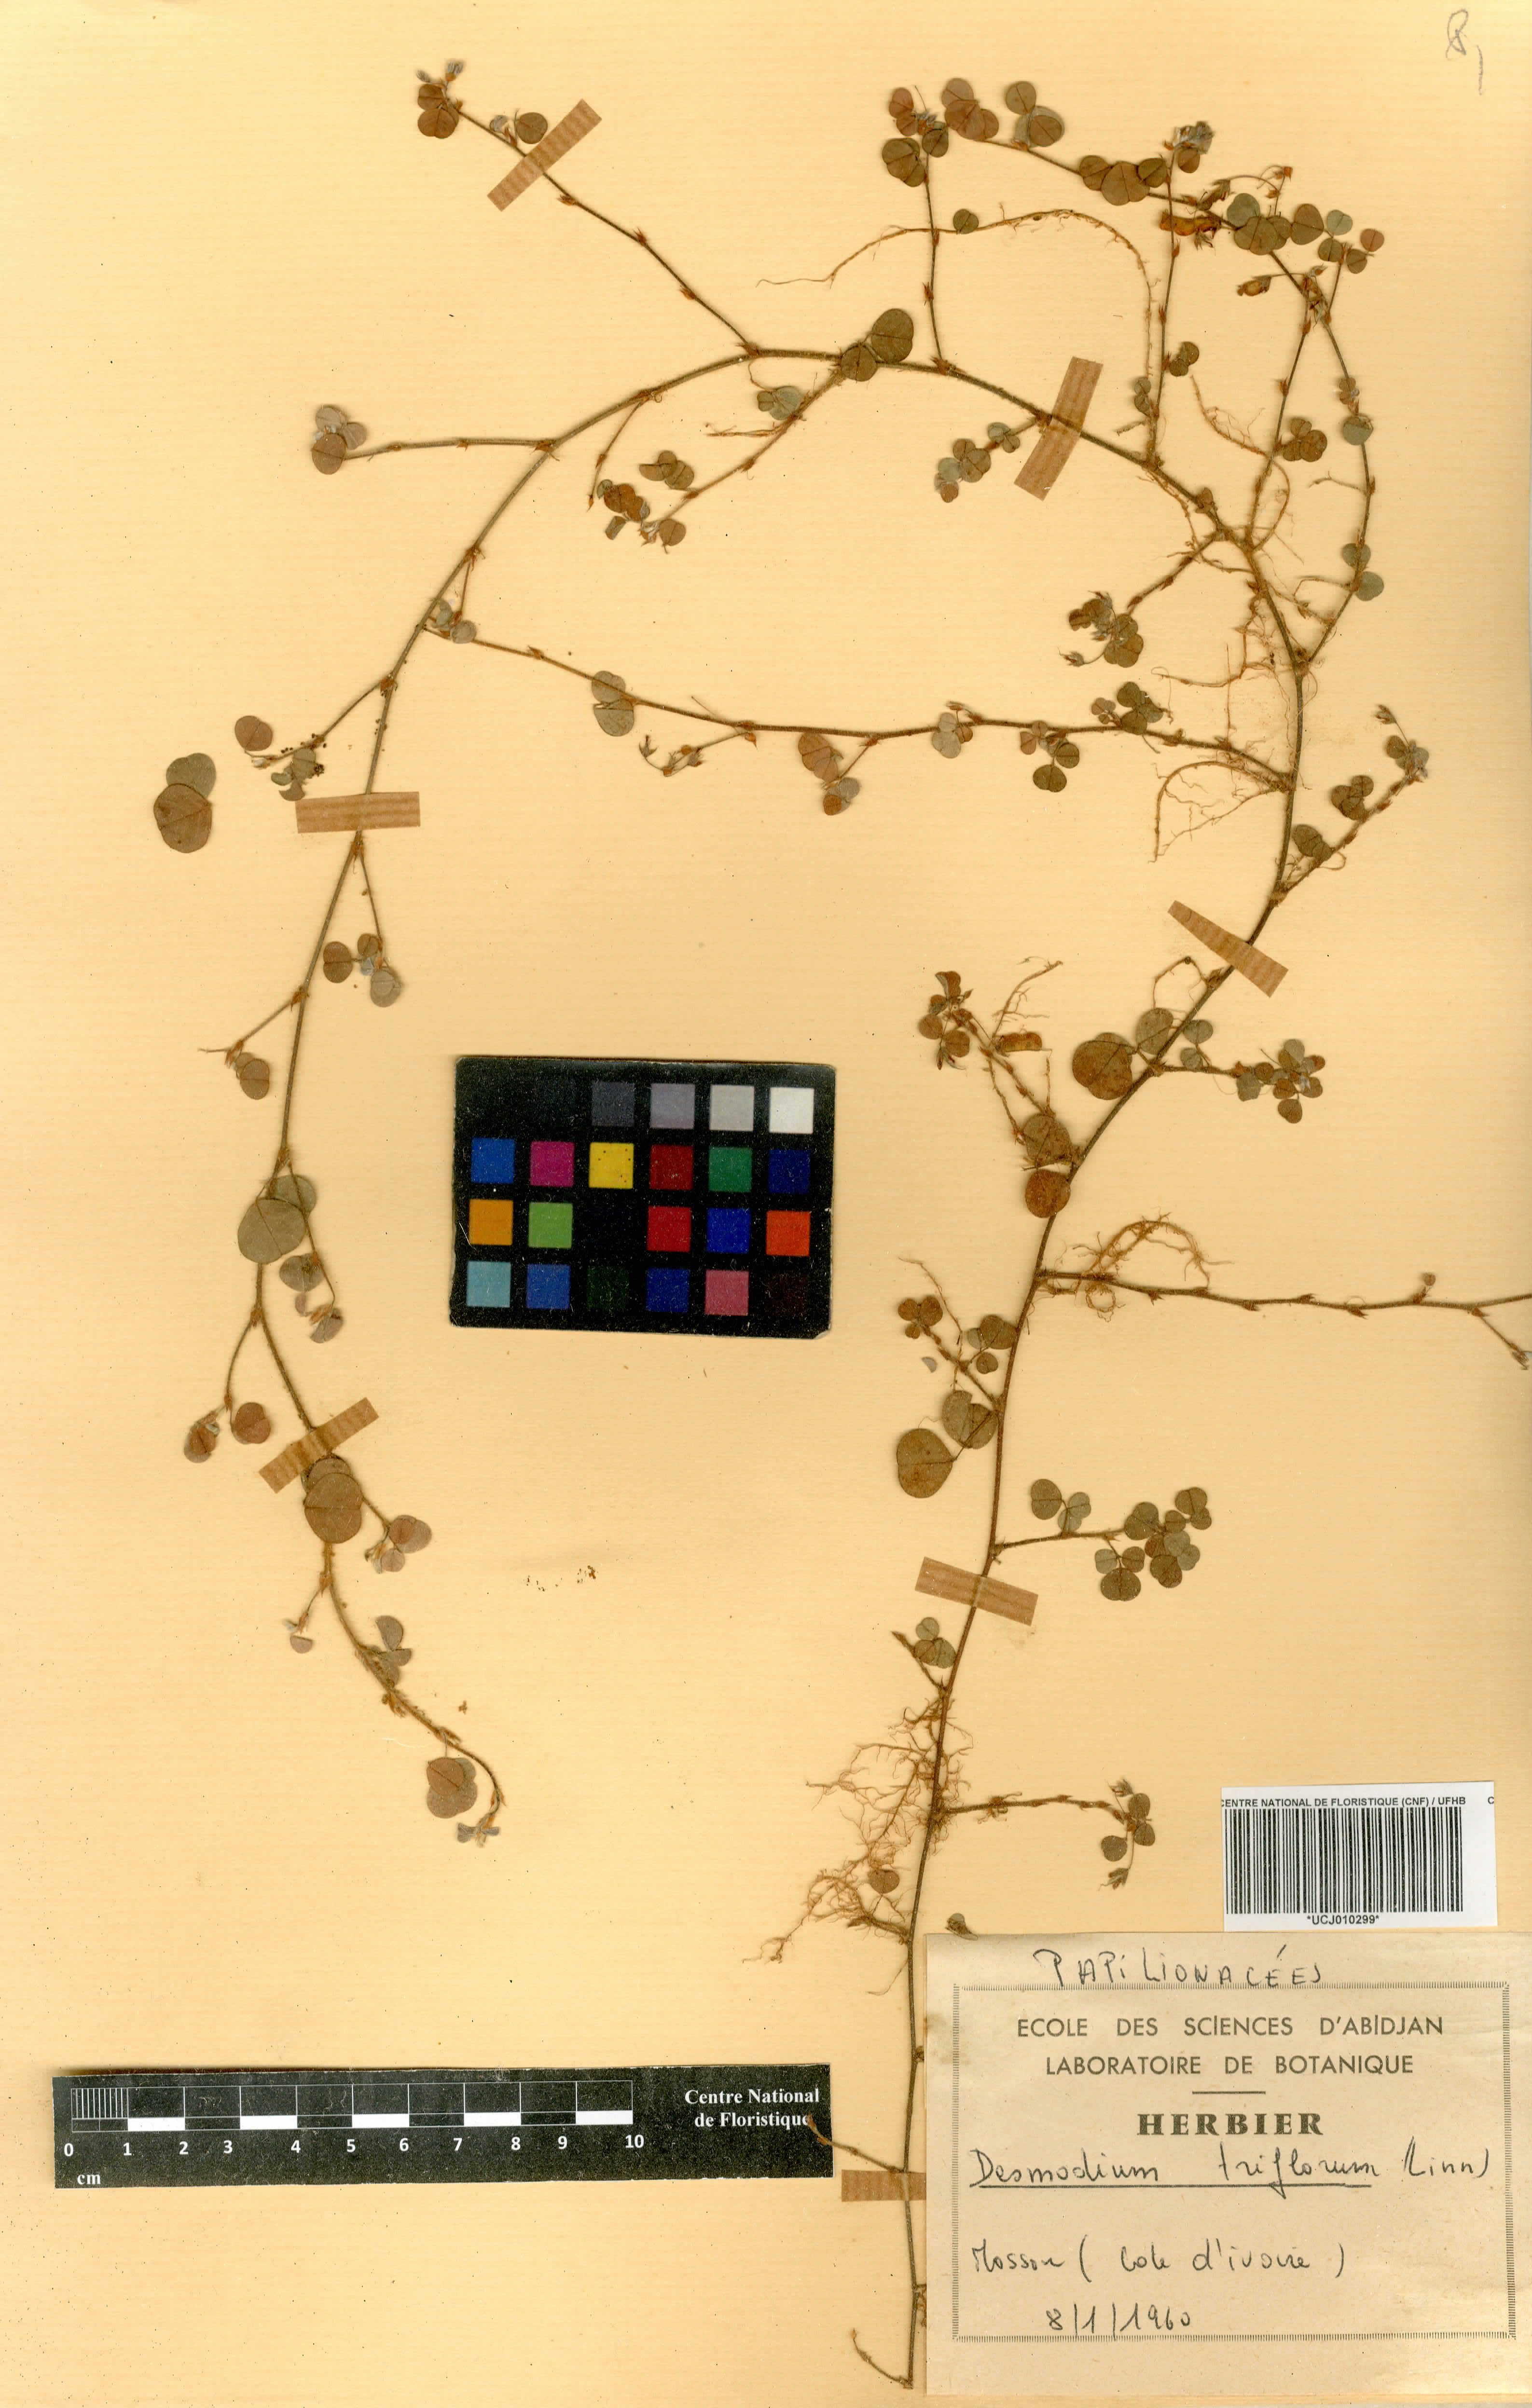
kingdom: Plantae
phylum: Tracheophyta
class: Magnoliopsida
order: Fabales
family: Fabaceae
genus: Grona
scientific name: Grona triflora
